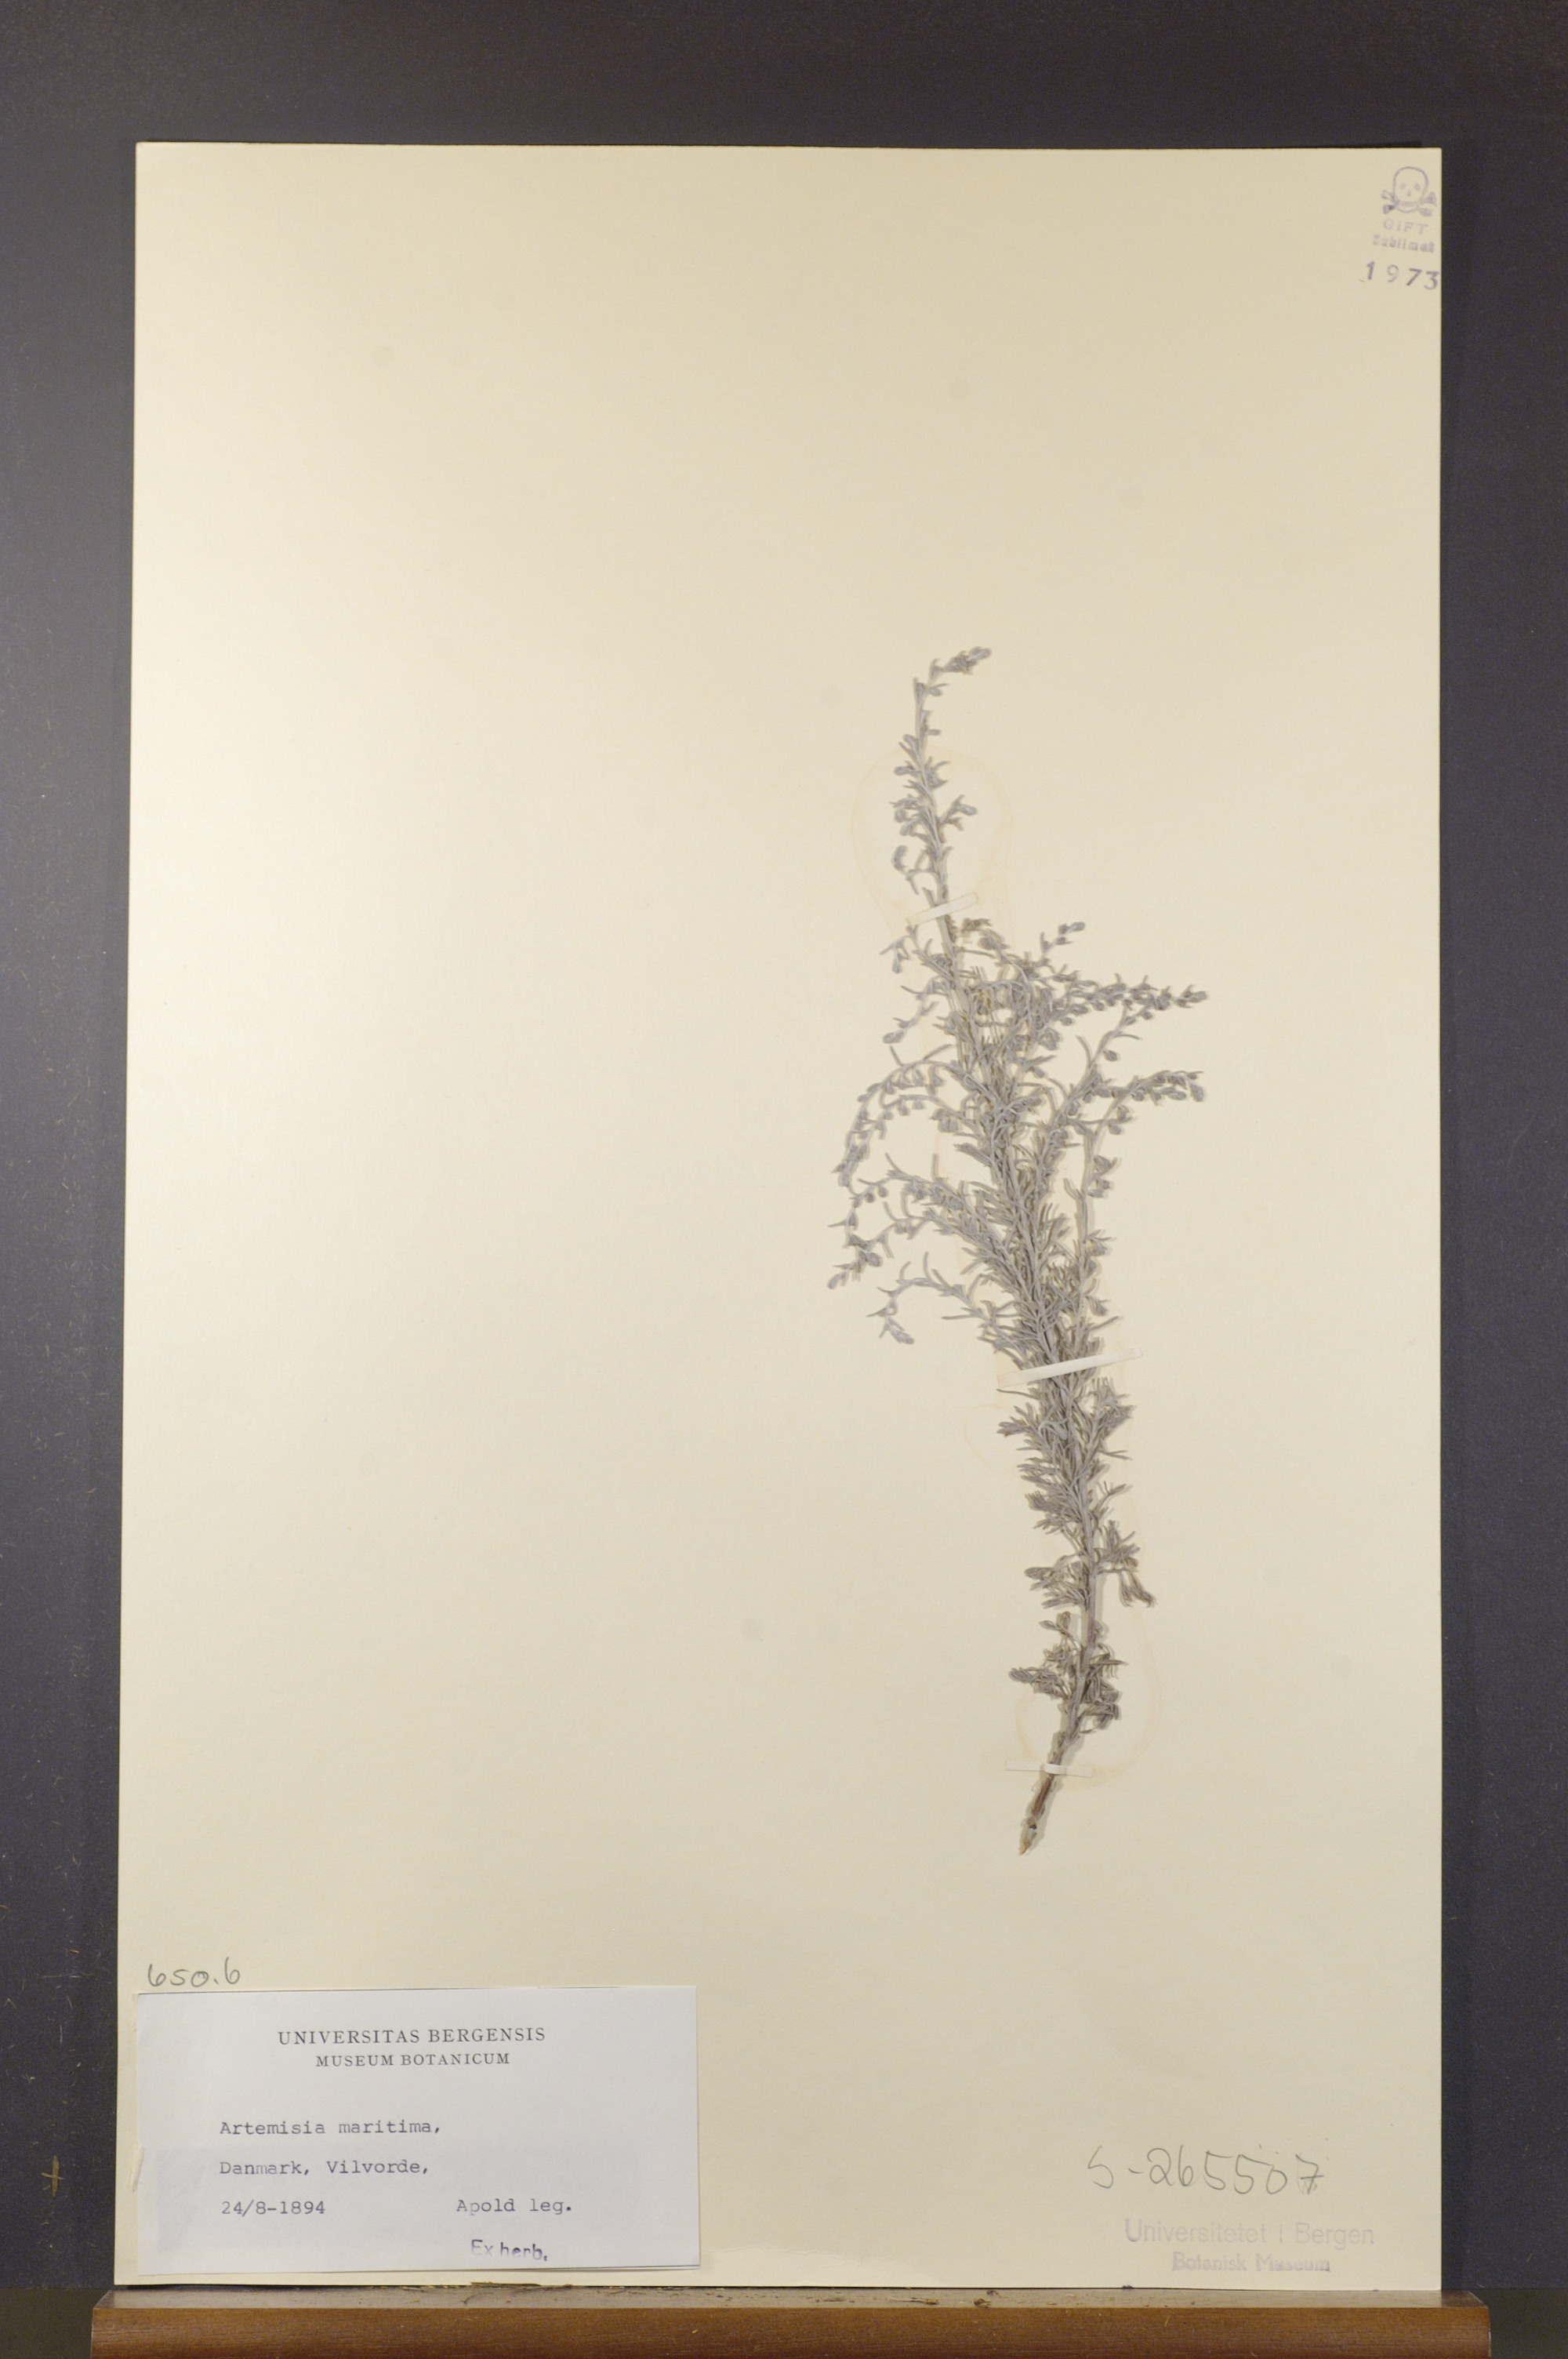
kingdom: Plantae
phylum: Tracheophyta
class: Magnoliopsida
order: Asterales
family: Asteraceae
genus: Artemisia
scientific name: Artemisia maritima
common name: Wormseed
